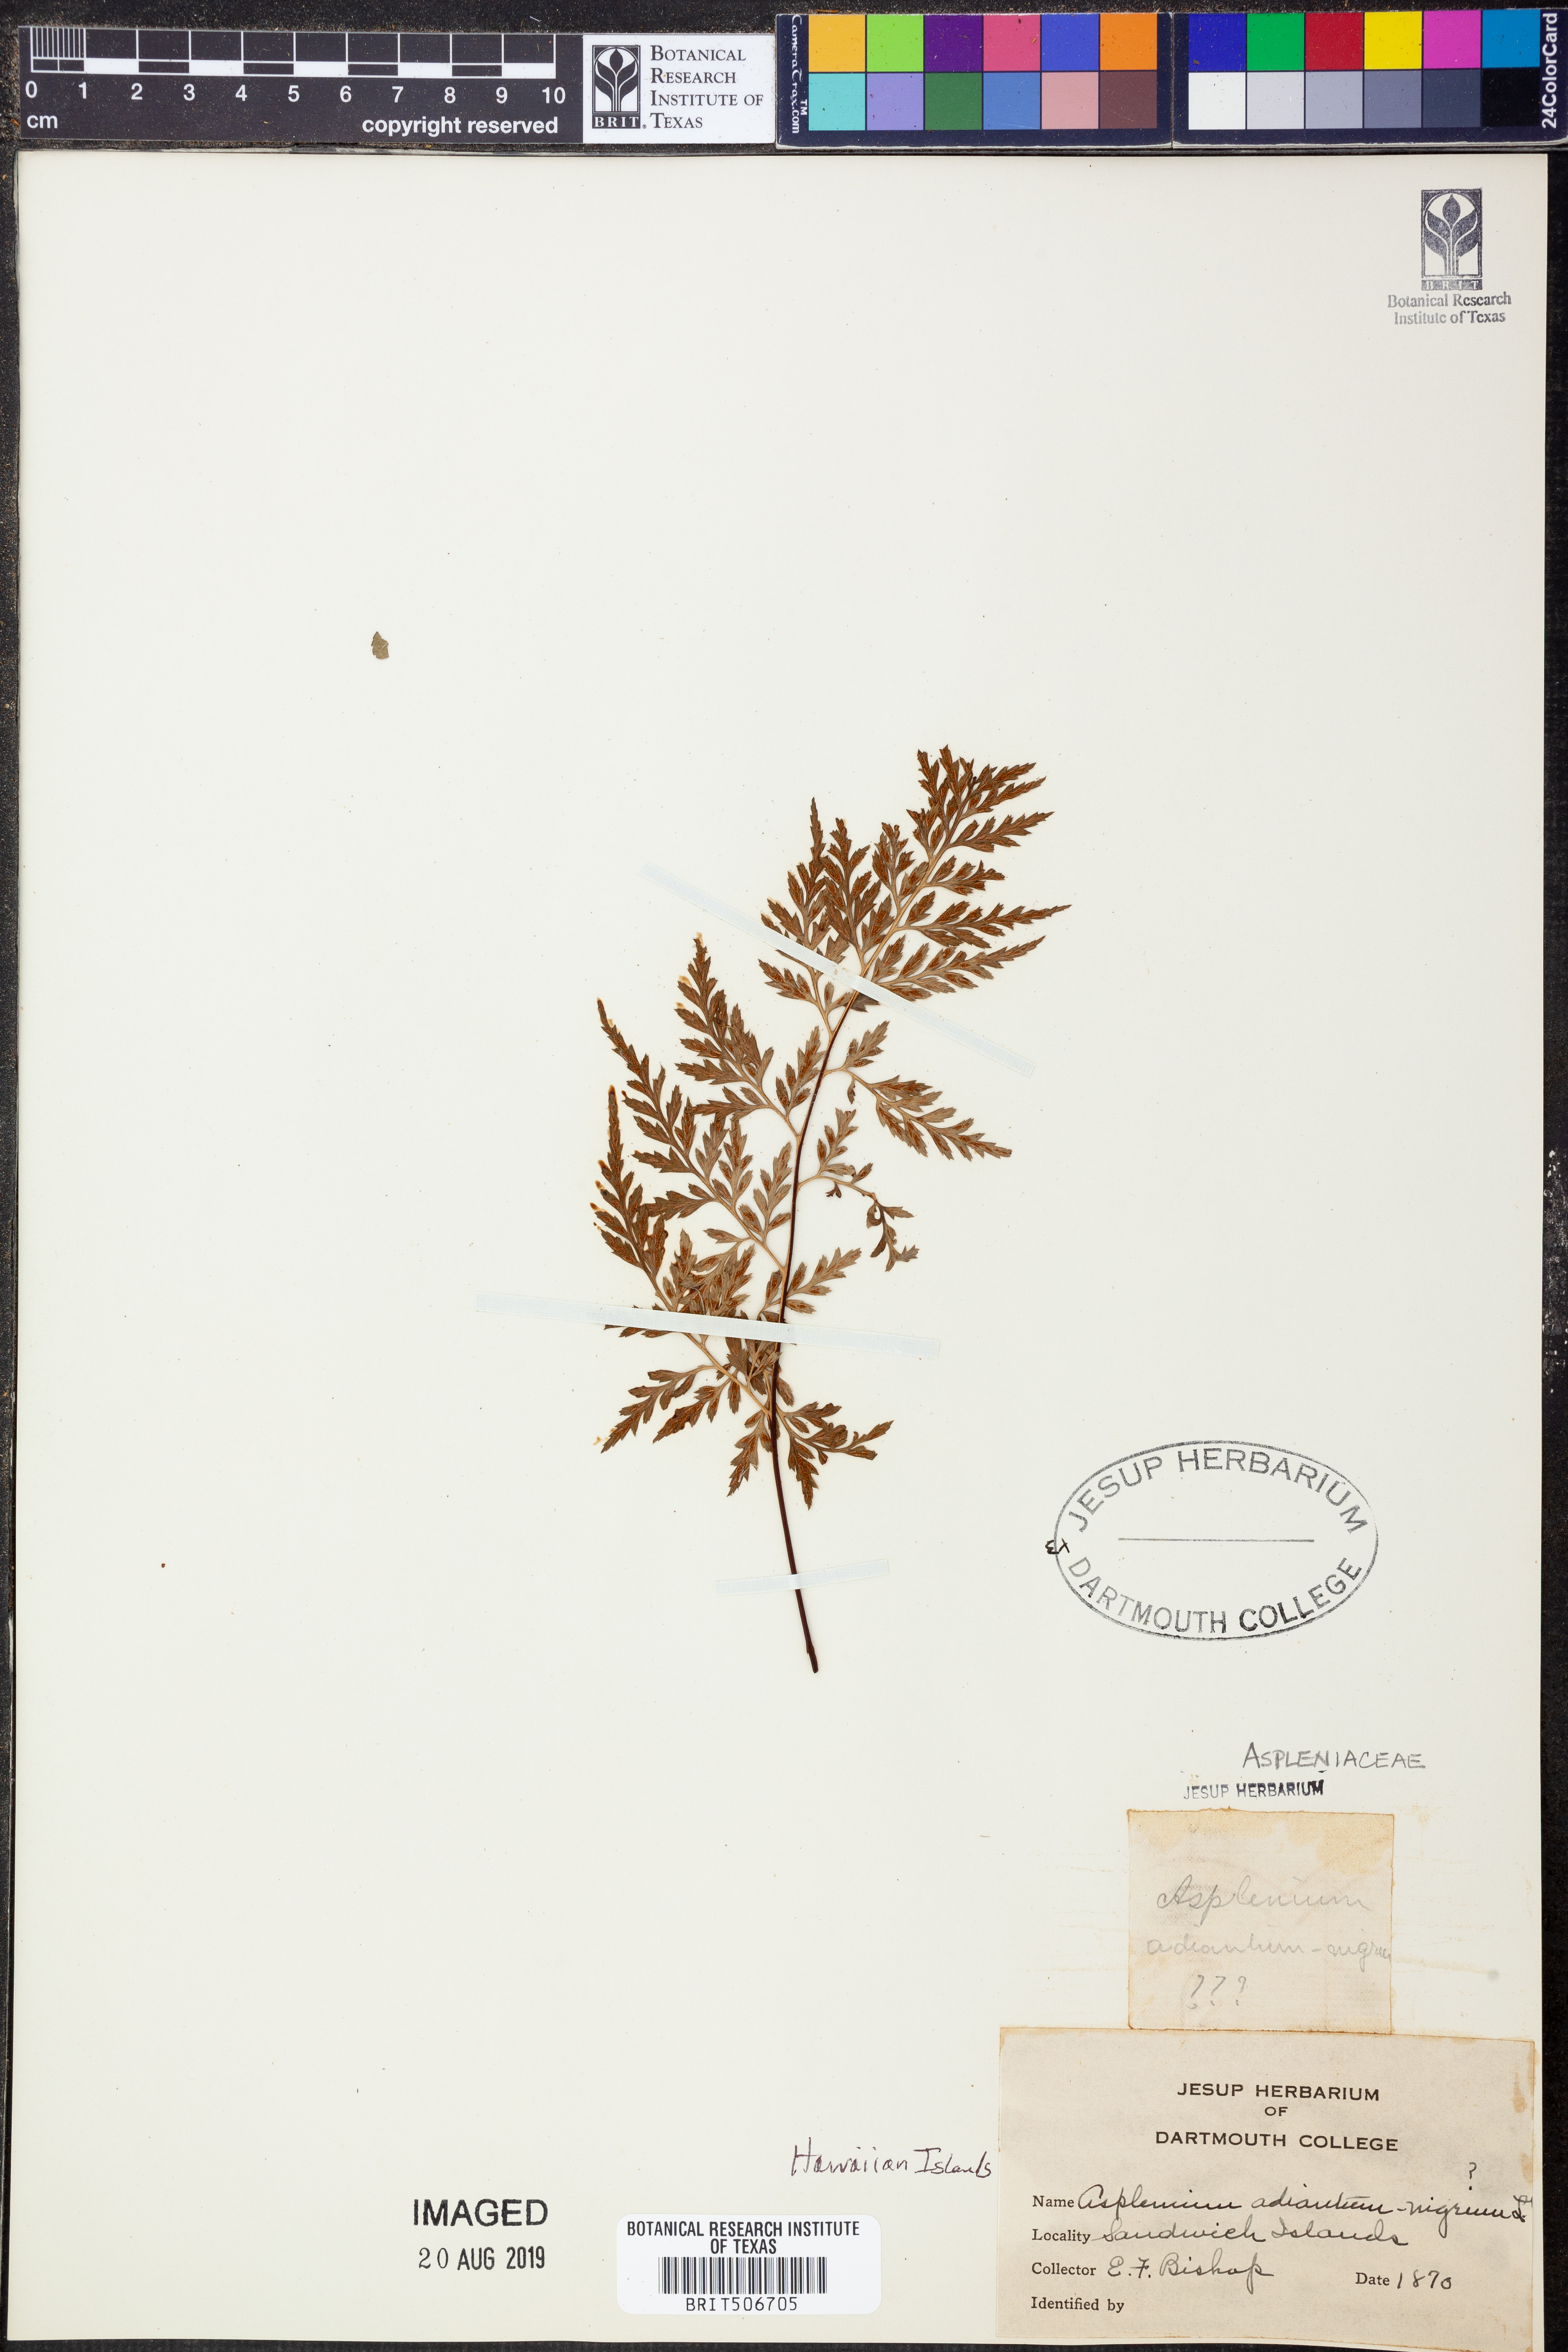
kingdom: Plantae
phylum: Tracheophyta
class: Polypodiopsida
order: Polypodiales
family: Aspleniaceae
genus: Asplenium
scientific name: Asplenium adiantum-nigrum
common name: Black spleenwort
